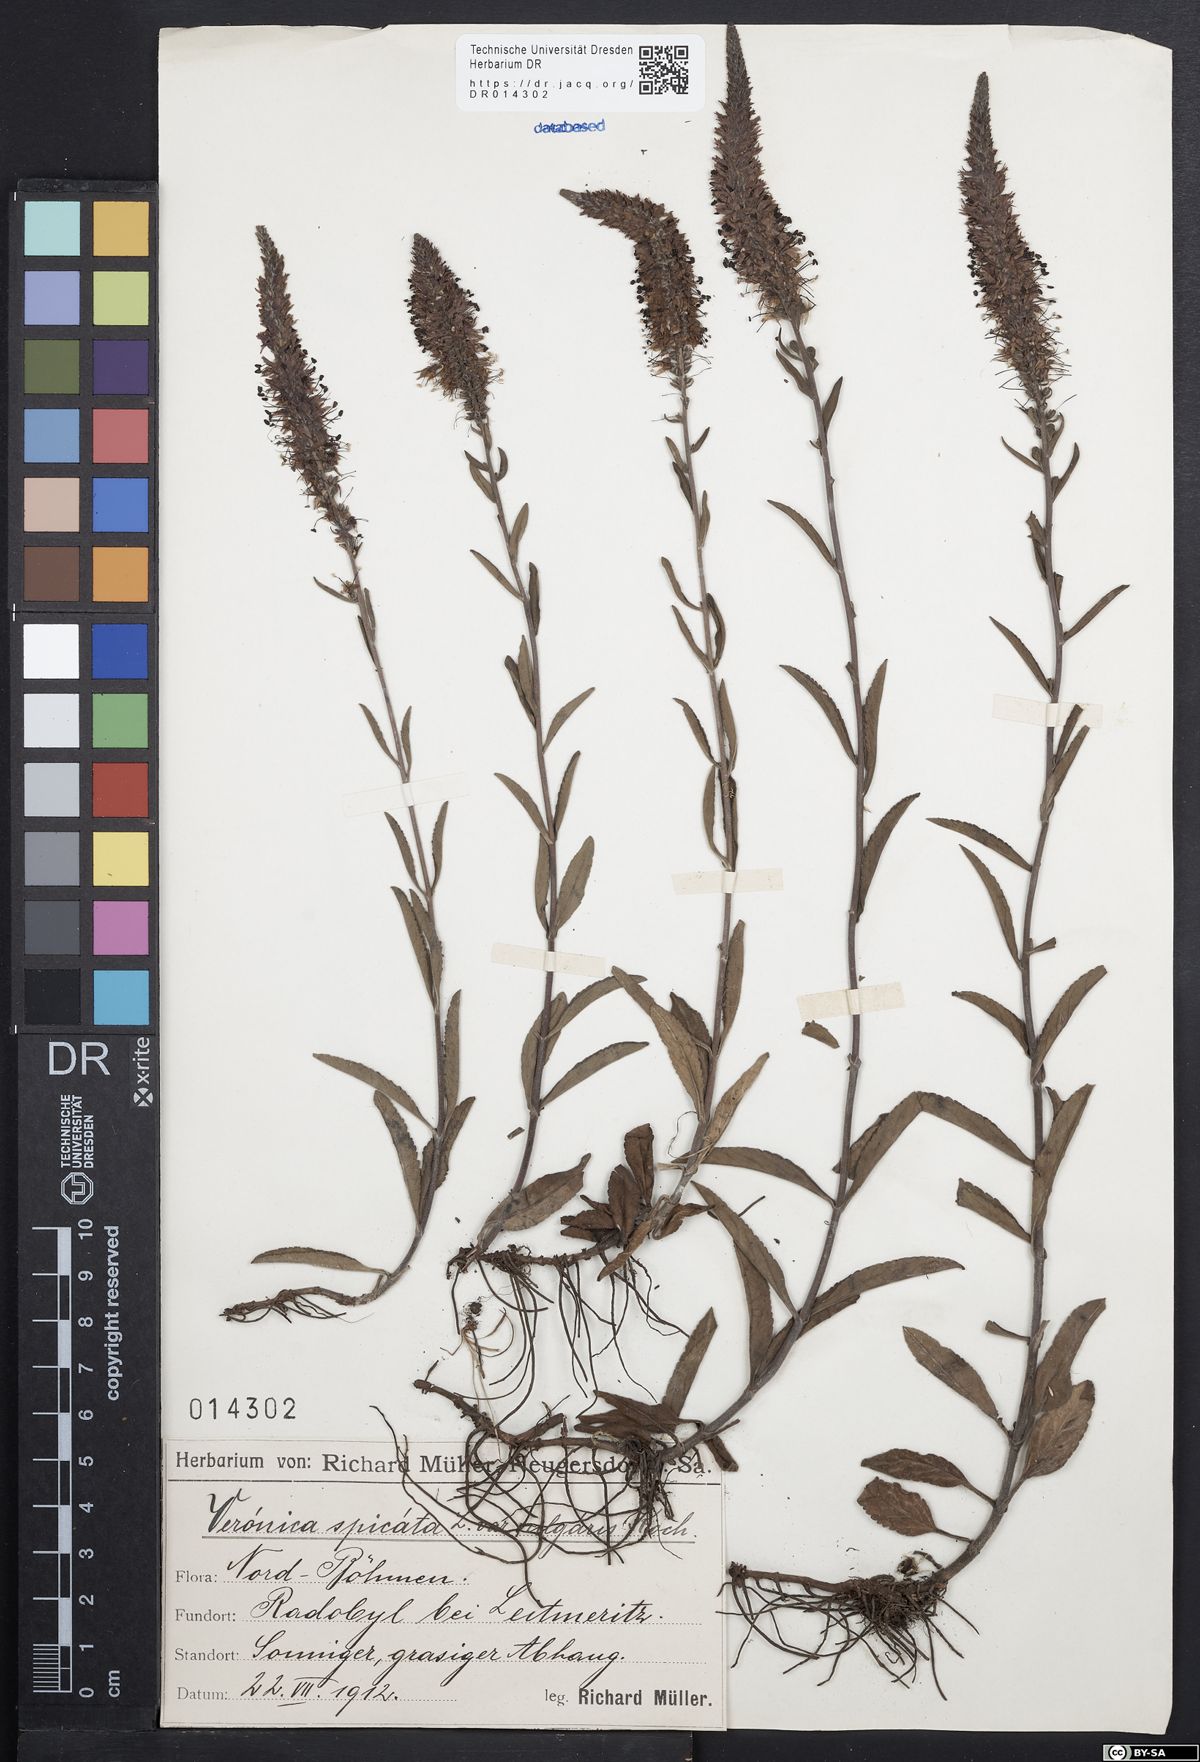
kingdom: Plantae
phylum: Tracheophyta
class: Magnoliopsida
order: Lamiales
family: Plantaginaceae
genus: Veronica
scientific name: Veronica spicata
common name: Spiked speedwell
